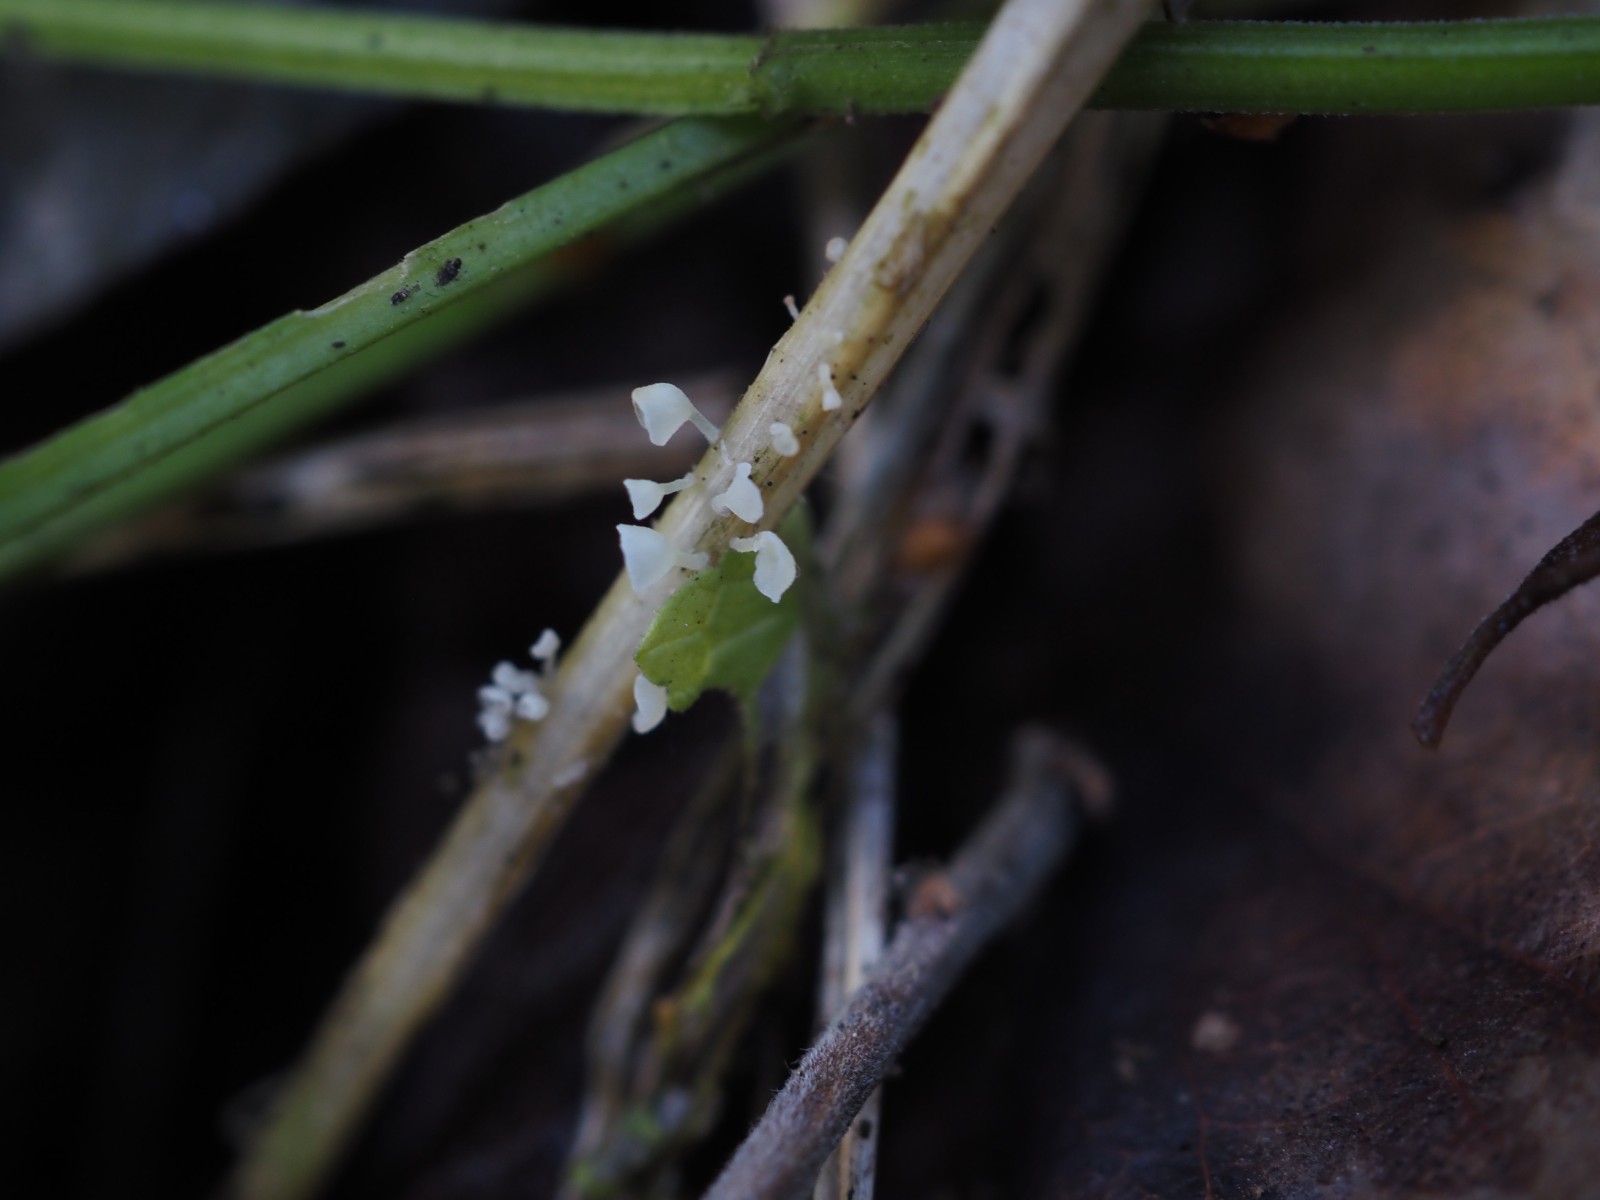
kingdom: Fungi
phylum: Basidiomycota
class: Agaricomycetes
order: Agaricales
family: Marasmiaceae
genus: Calyptella
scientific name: Calyptella capula
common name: hvidlig nældehue
